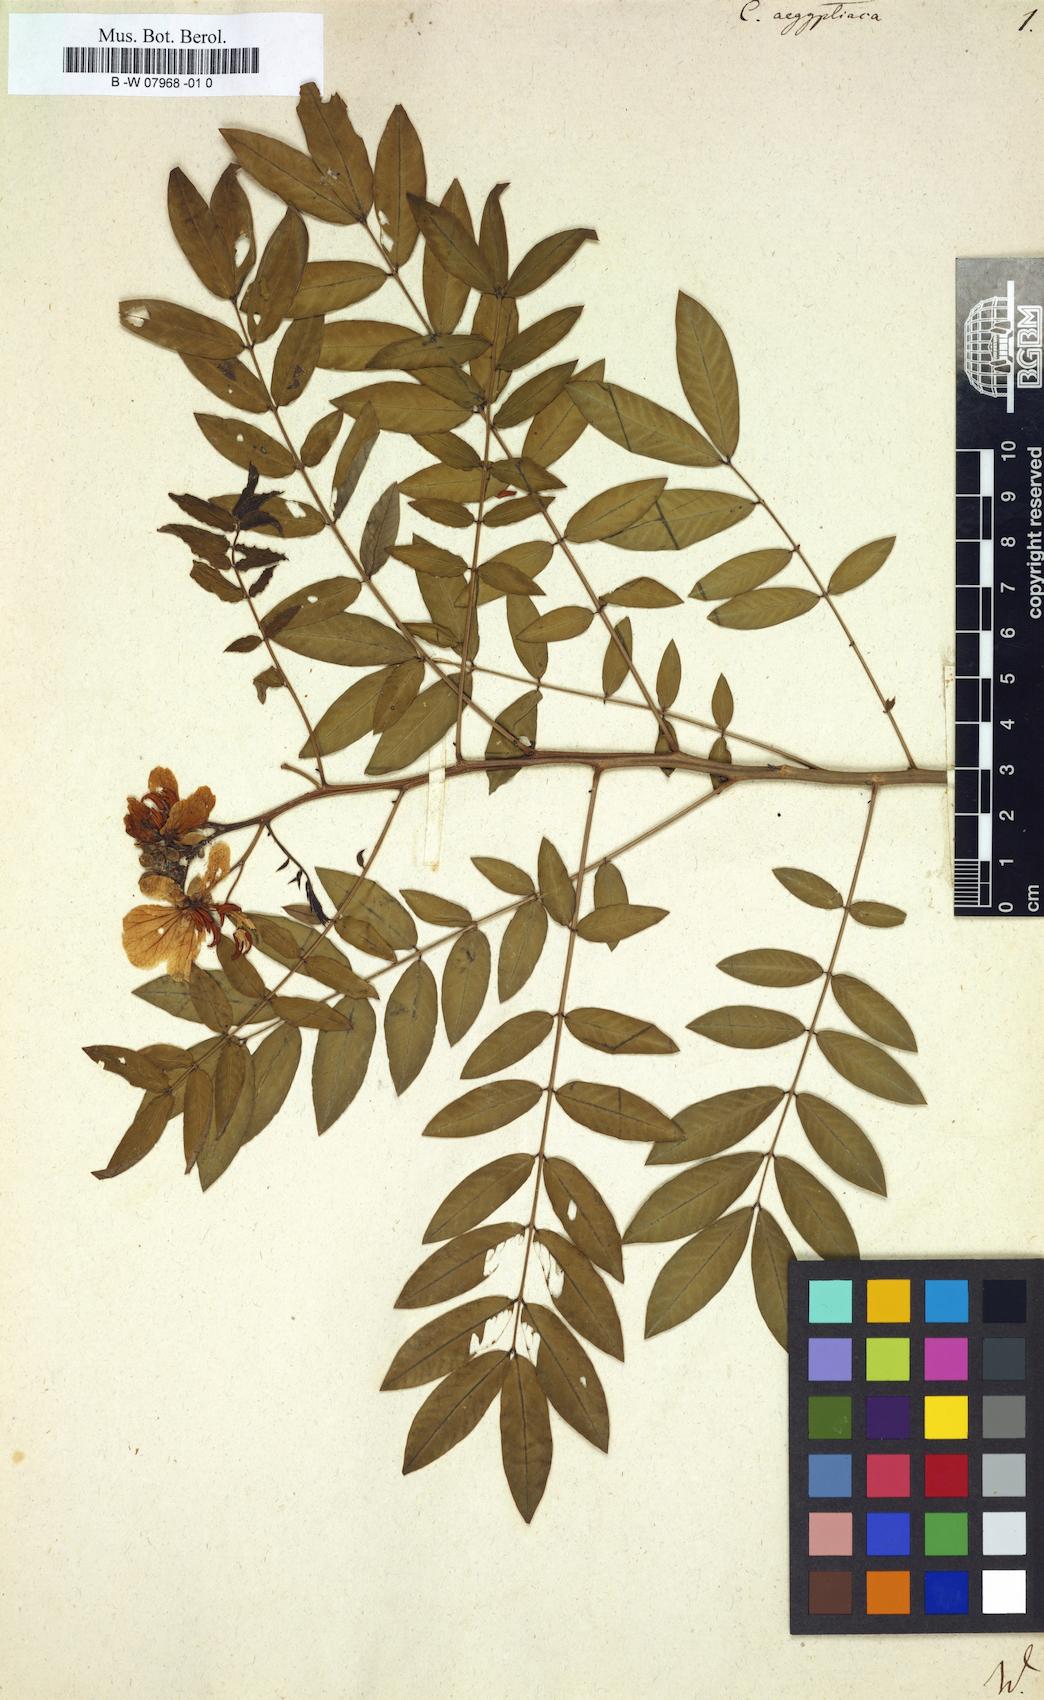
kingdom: Plantae
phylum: Tracheophyta
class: Magnoliopsida
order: Fabales
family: Fabaceae
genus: Senna
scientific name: Senna sophera
